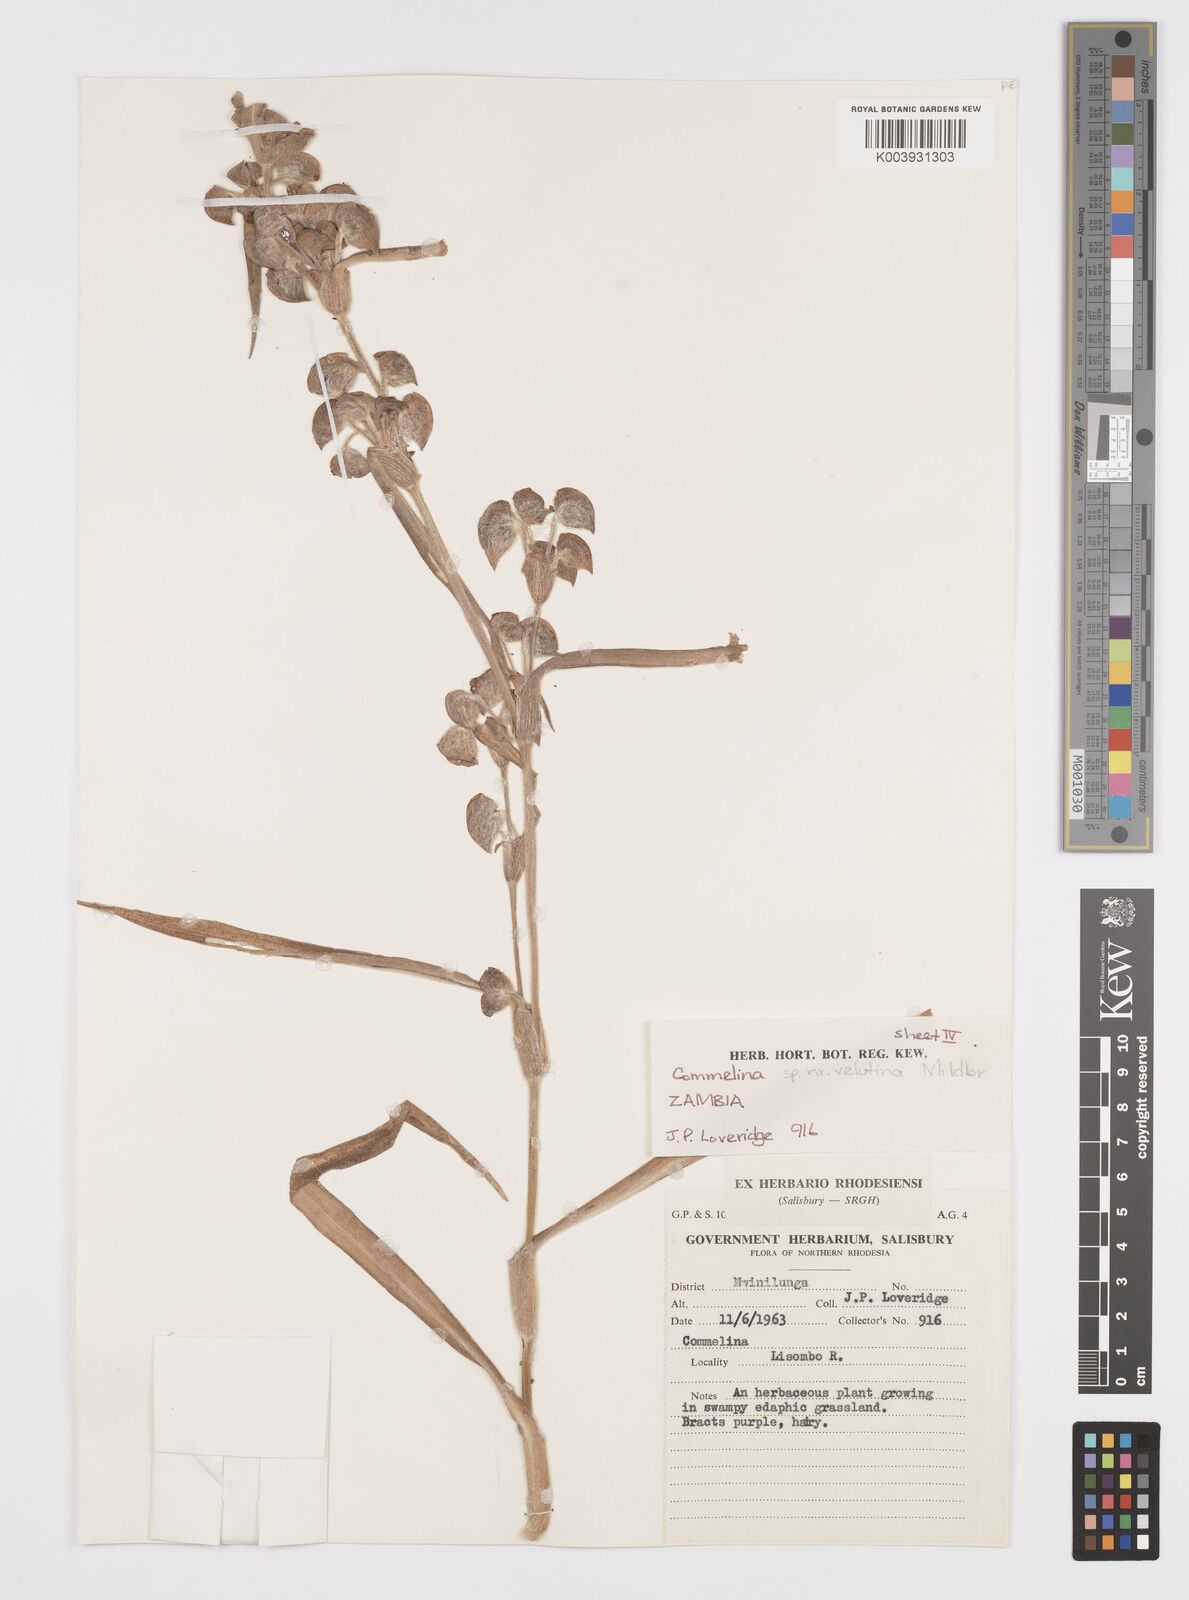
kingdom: Plantae
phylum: Tracheophyta
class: Liliopsida
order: Commelinales
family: Commelinaceae
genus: Commelina
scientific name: Commelina velutina
